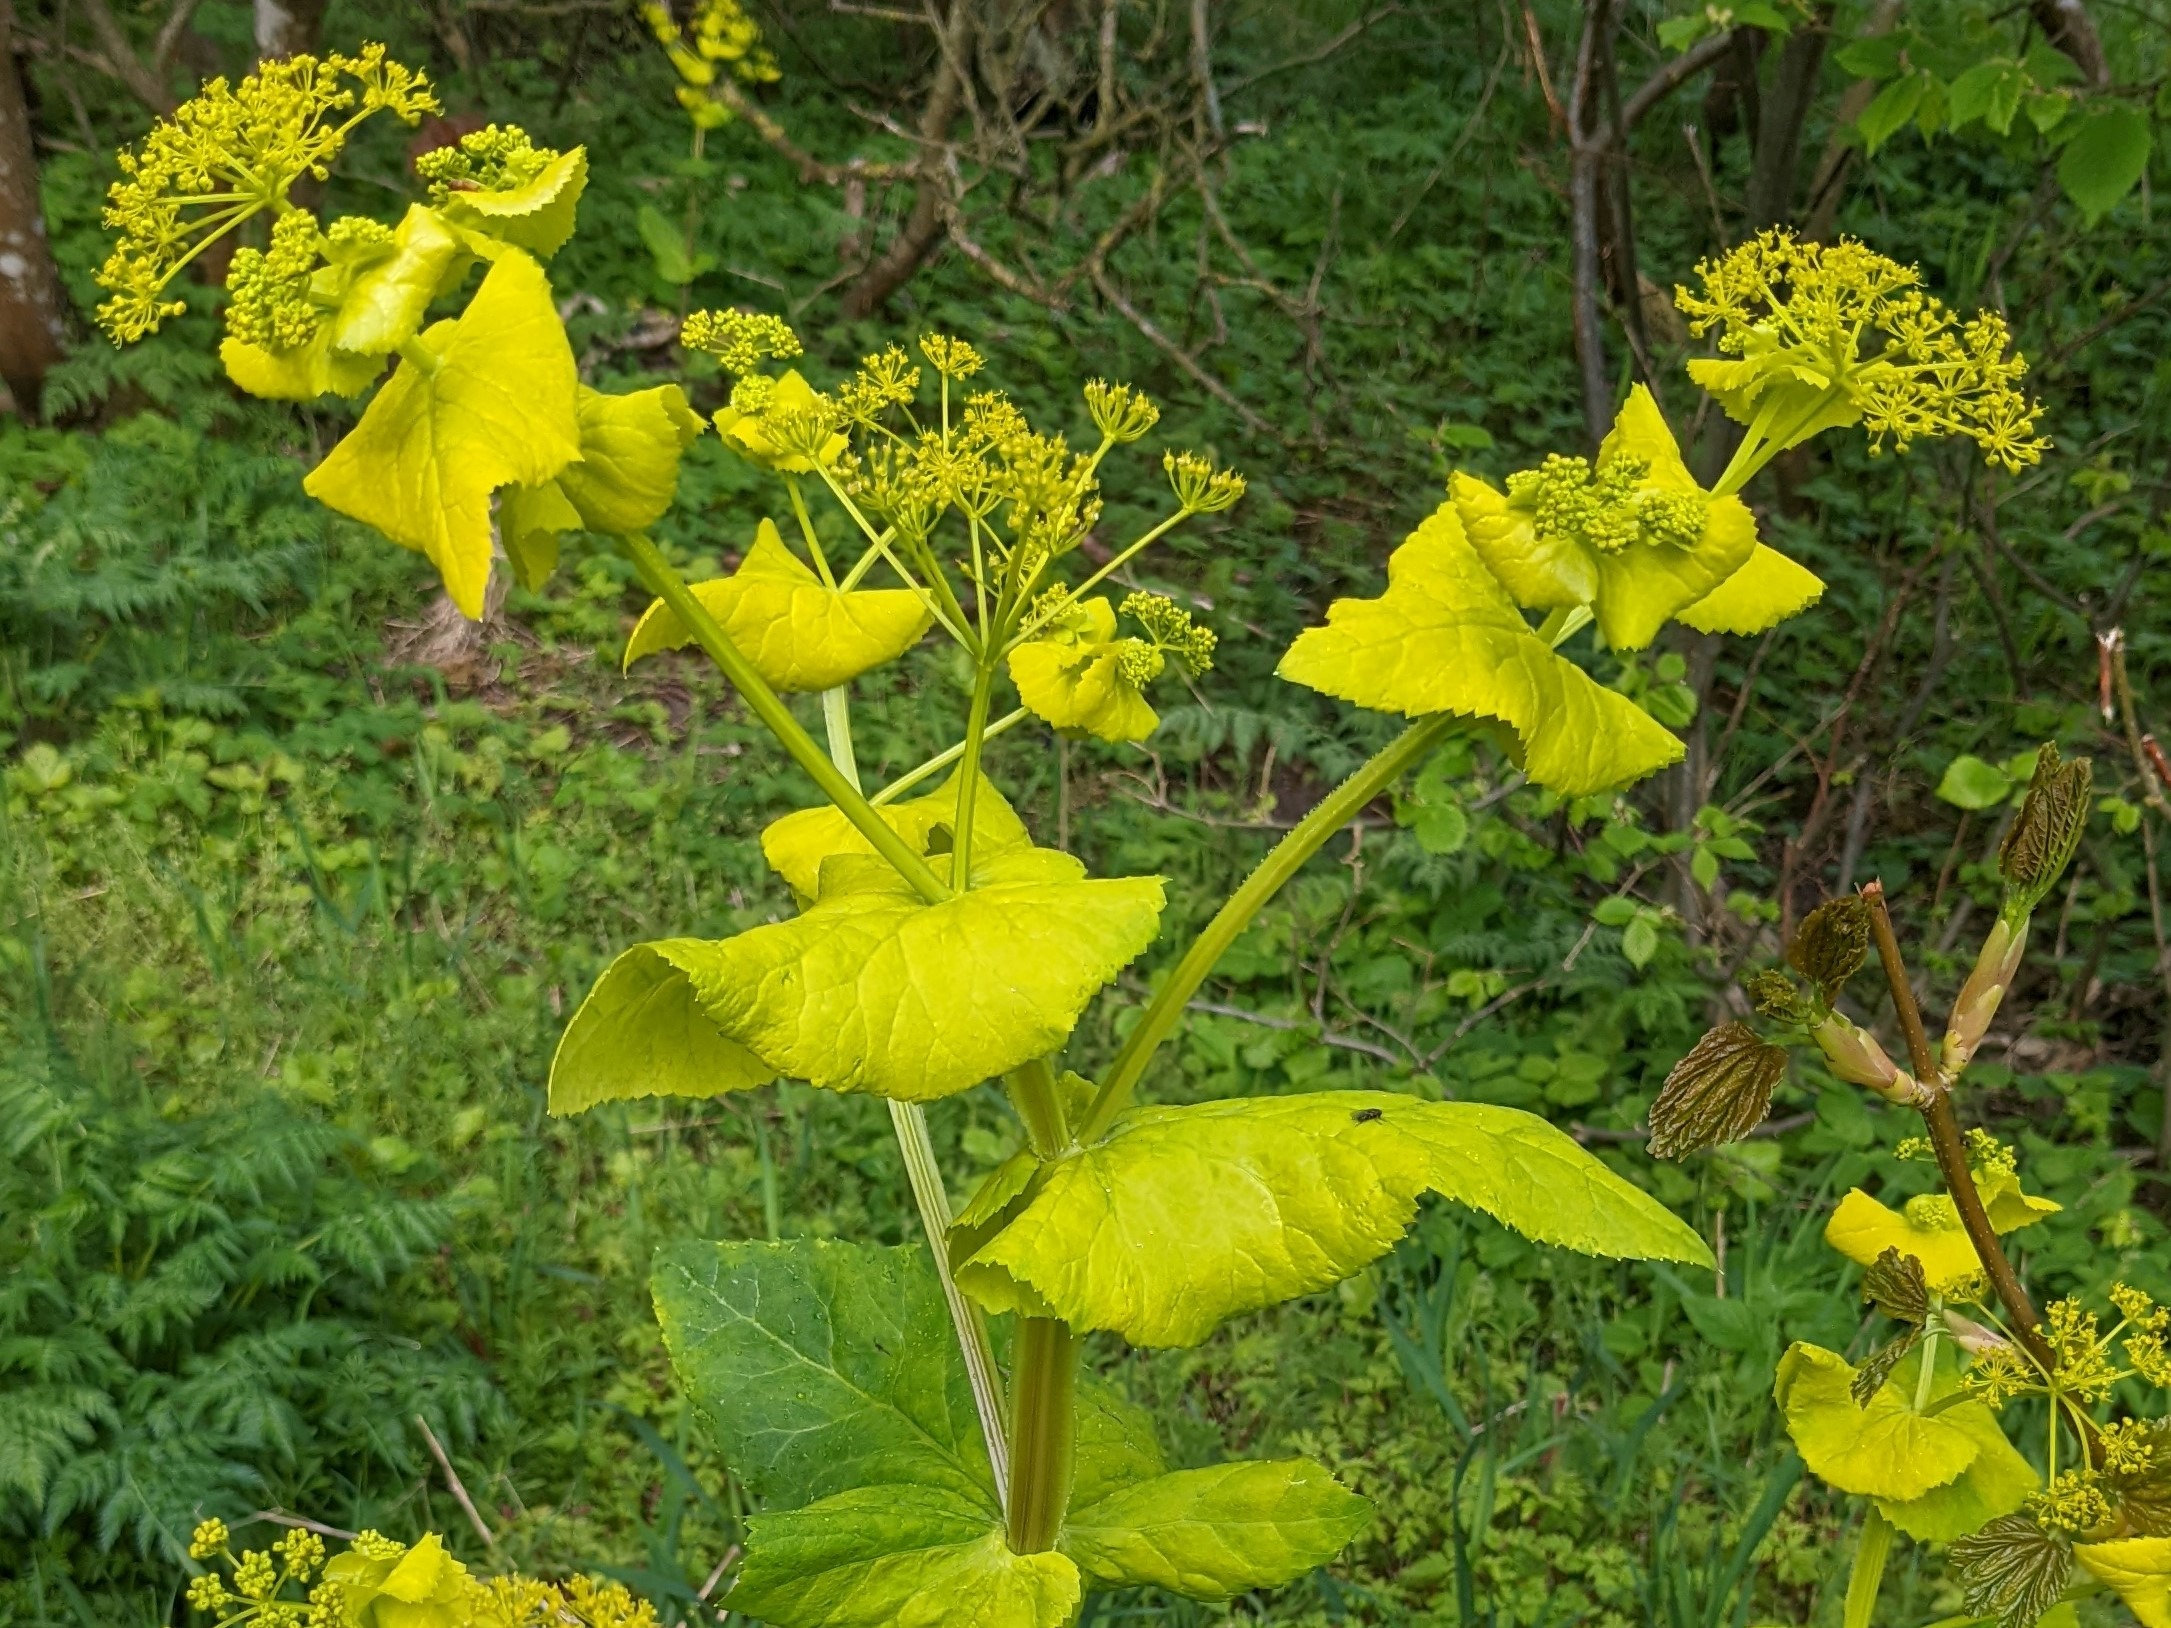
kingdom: Plantae
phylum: Tracheophyta
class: Magnoliopsida
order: Apiales
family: Apiaceae
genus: Smyrnium
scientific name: Smyrnium perfoliatum
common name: Lundgylden
